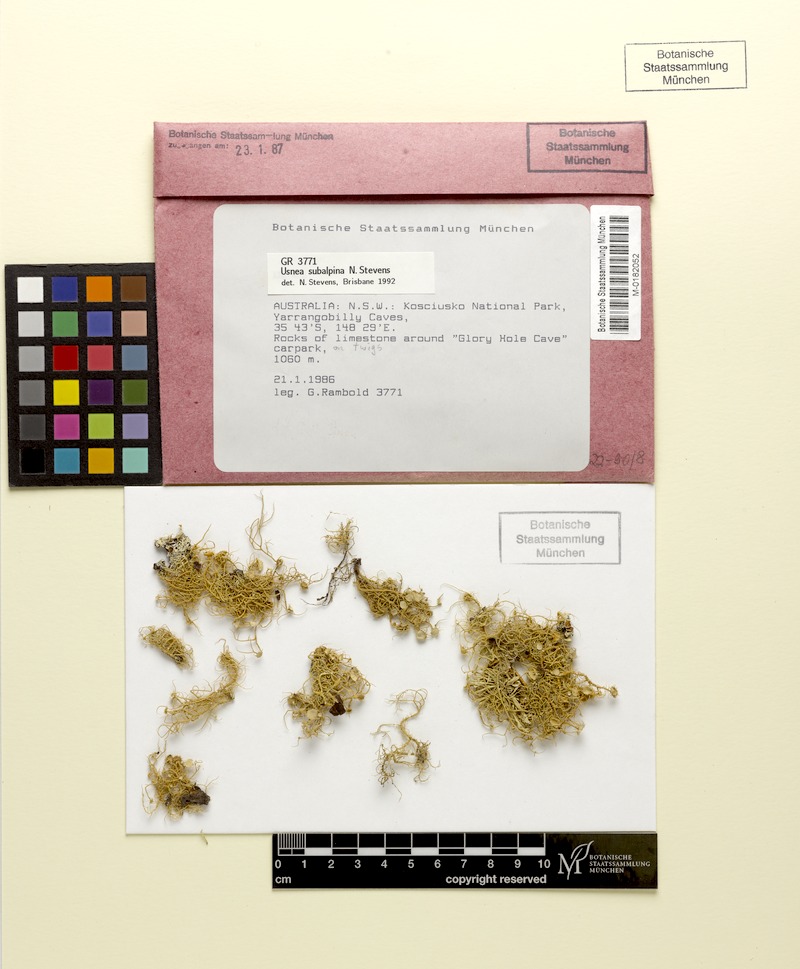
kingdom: Fungi
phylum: Ascomycota
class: Lecanoromycetes
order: Lecanorales
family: Parmeliaceae
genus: Usnea
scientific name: Usnea subalpina
